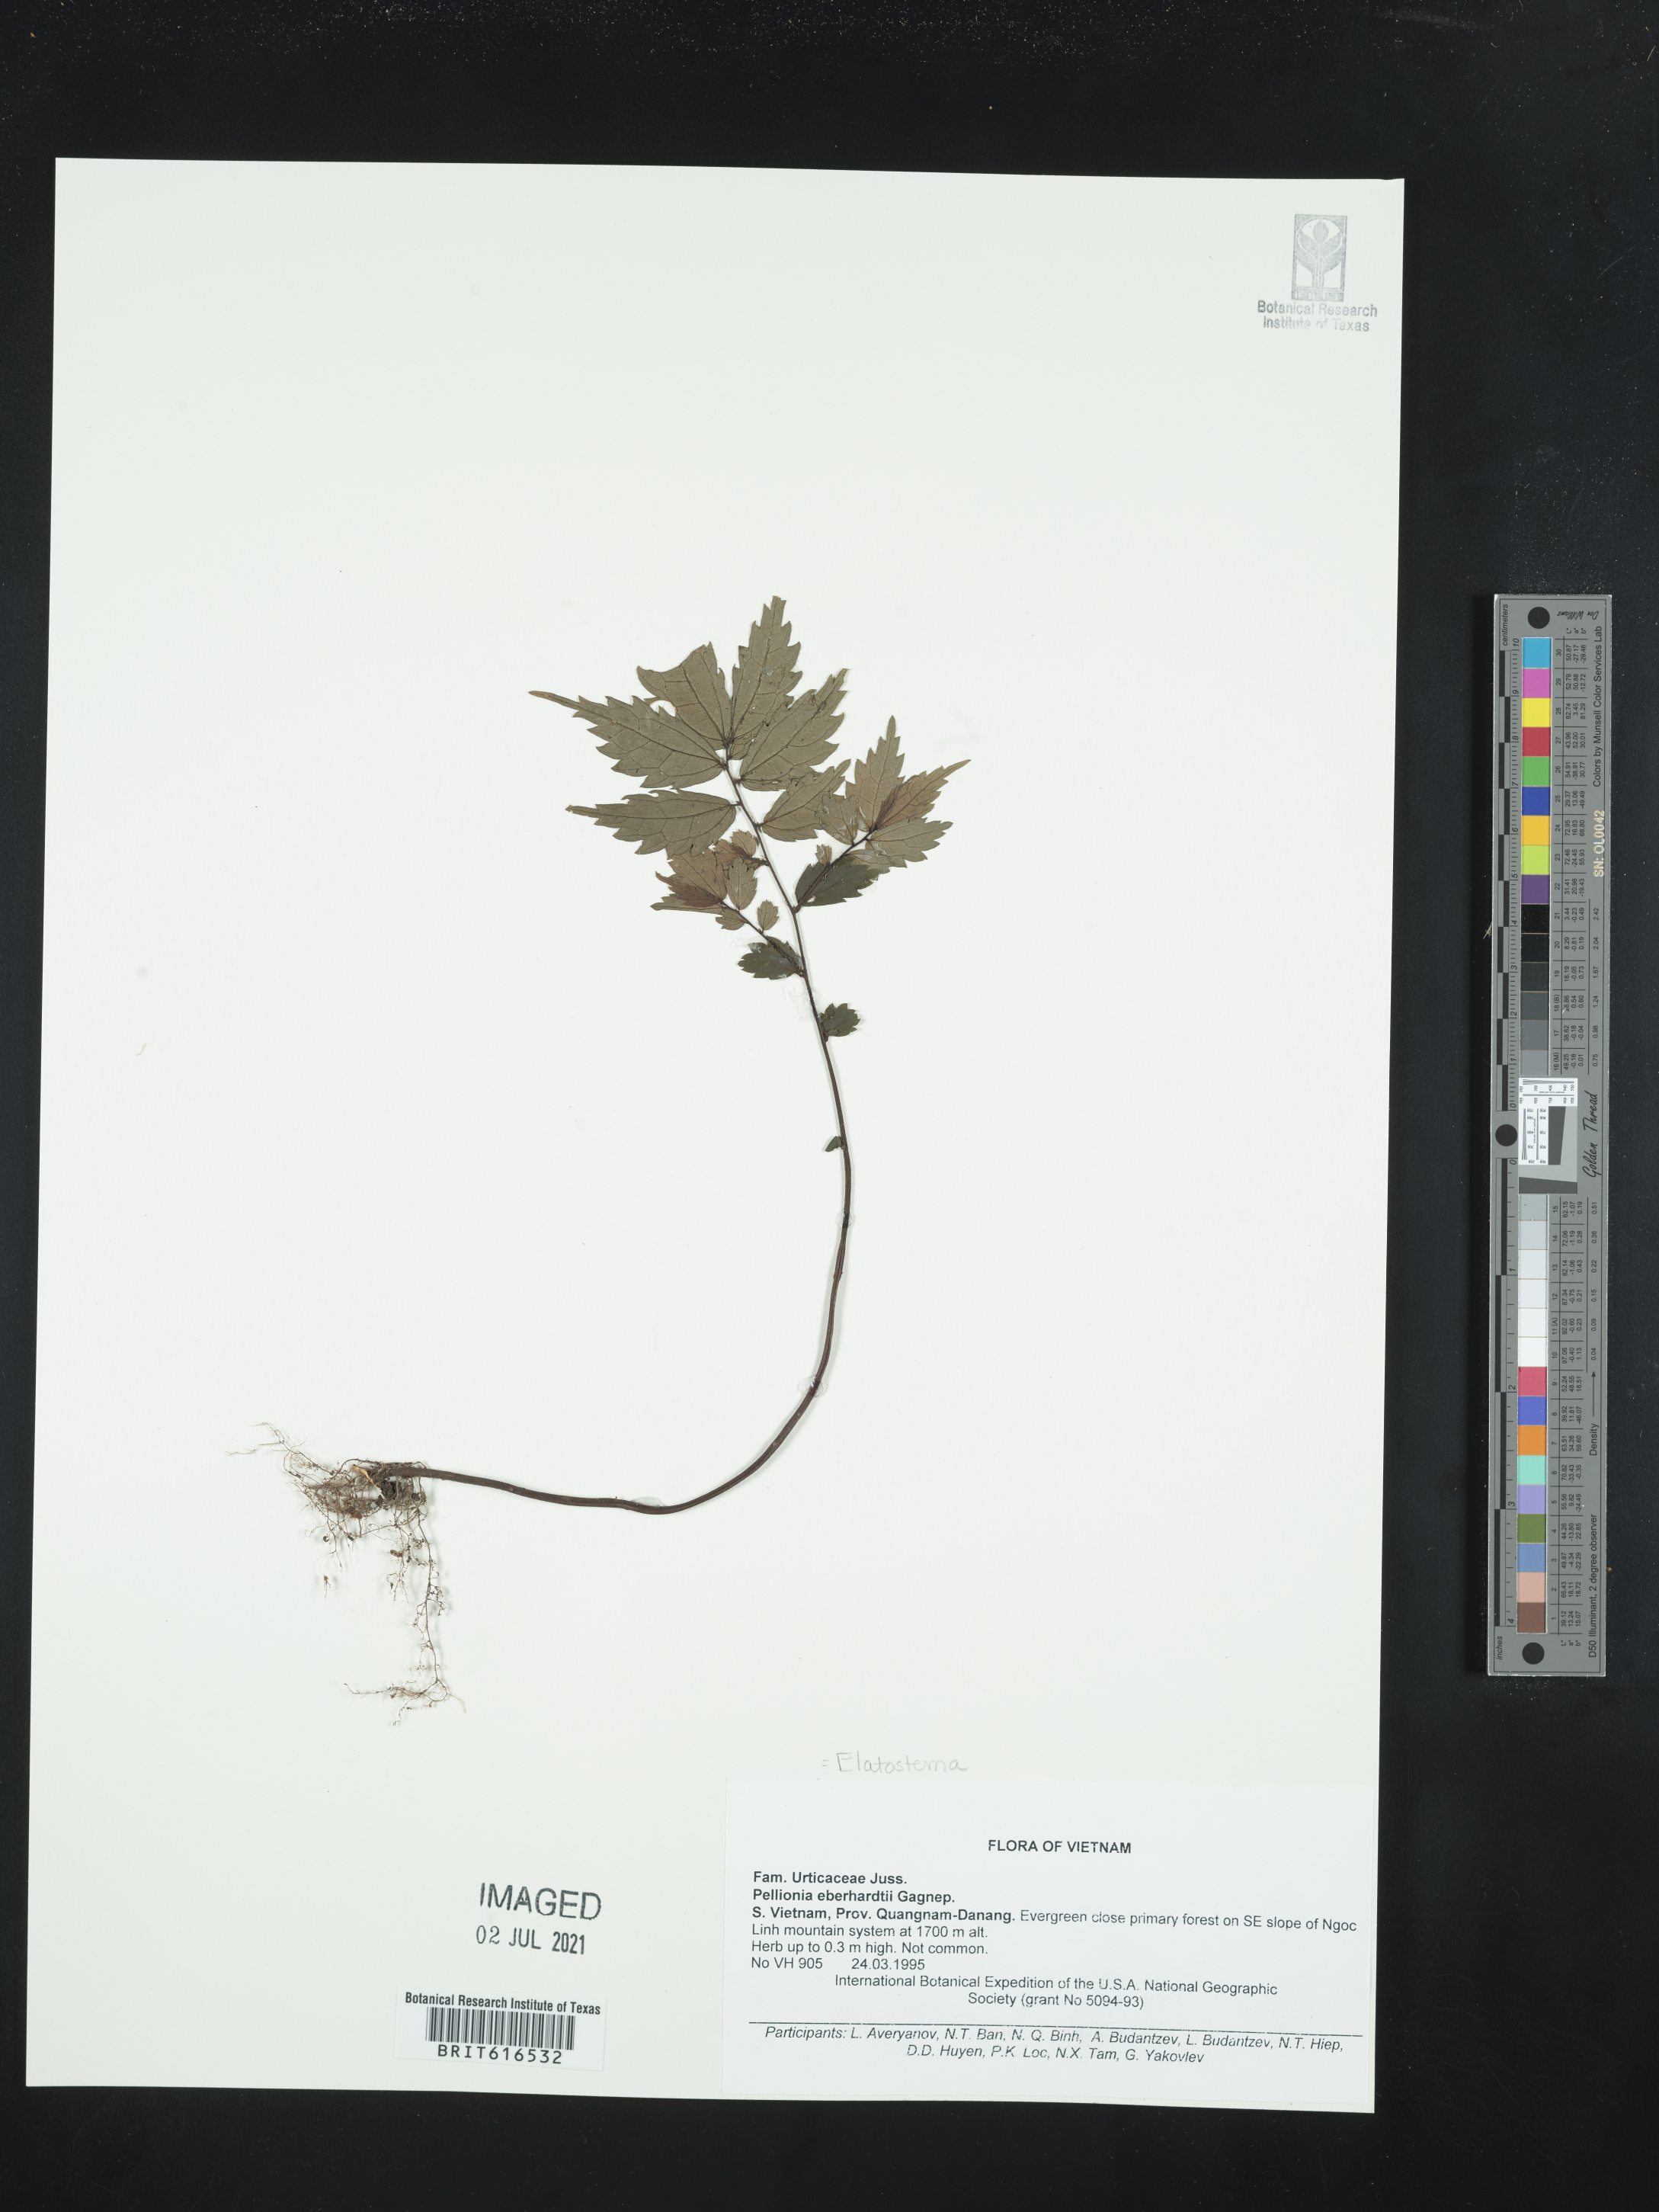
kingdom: Plantae
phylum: Tracheophyta
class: Magnoliopsida
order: Rosales
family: Urticaceae
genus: Elatostema
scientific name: Elatostema eberhardtii
